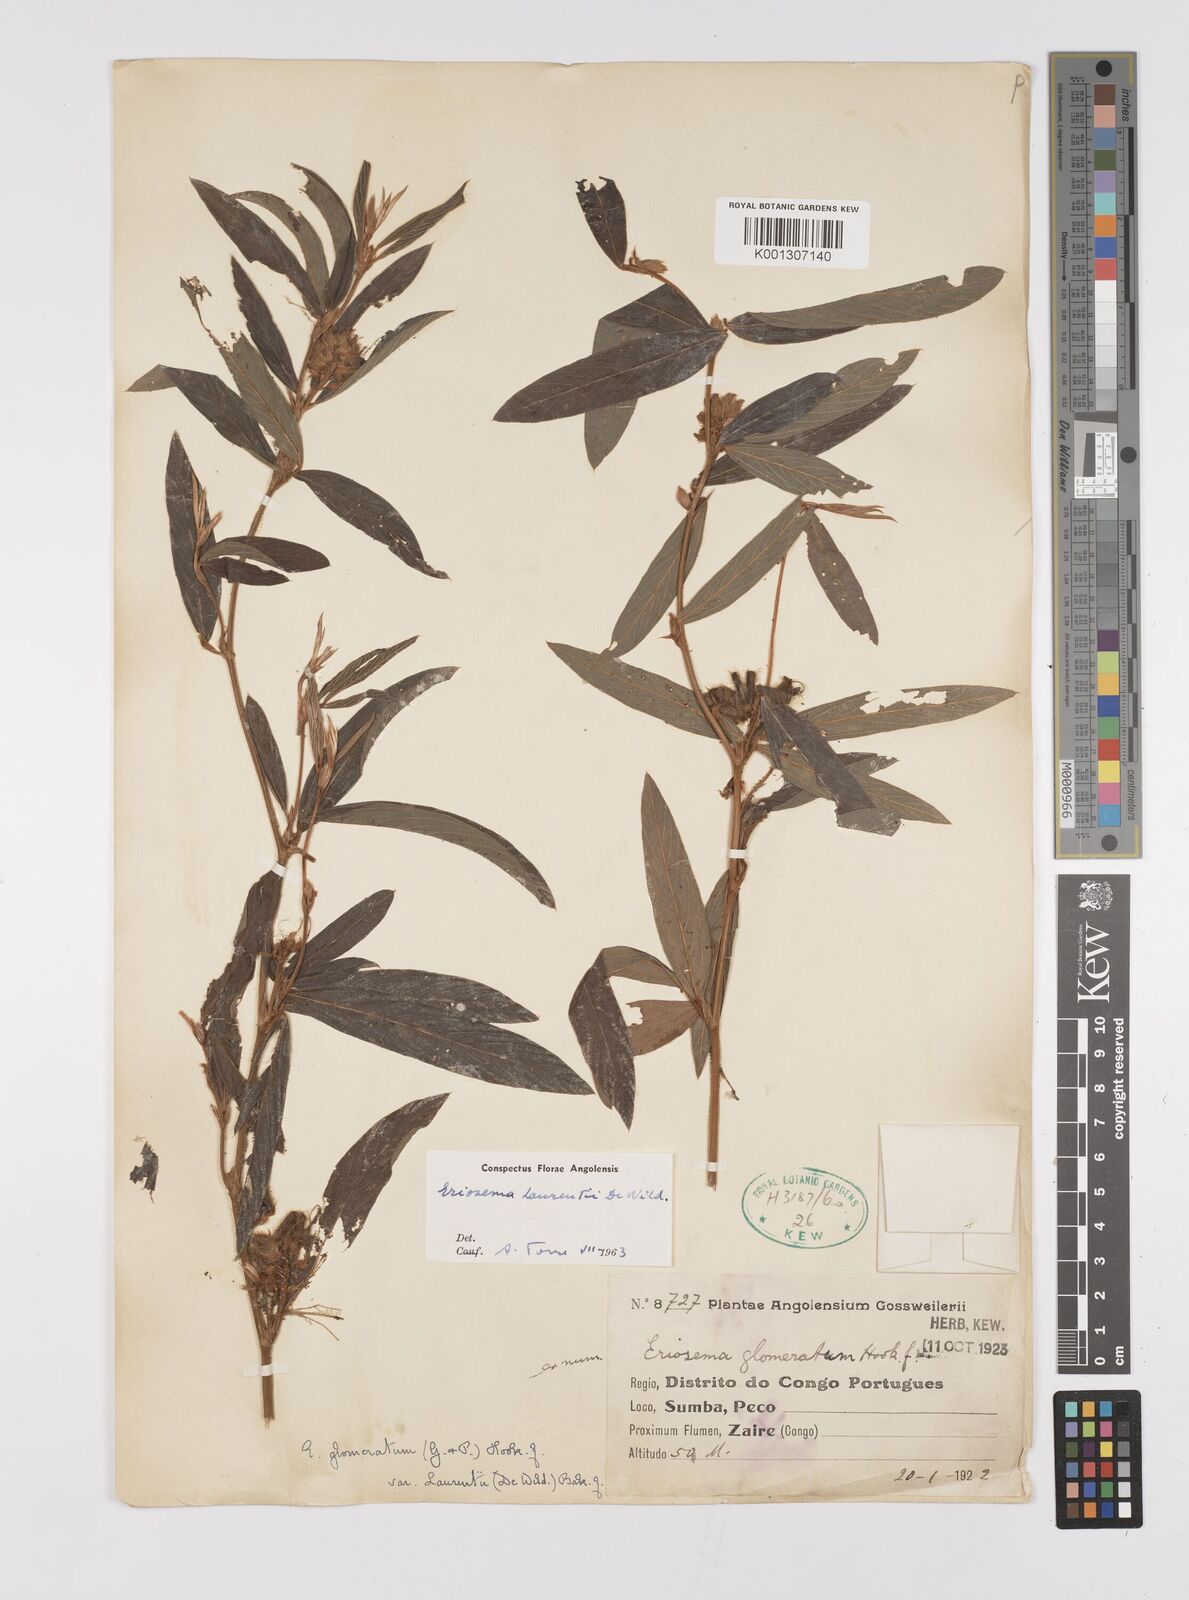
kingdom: Plantae
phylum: Tracheophyta
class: Magnoliopsida
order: Fabales
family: Fabaceae
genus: Eriosema
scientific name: Eriosema laurentii
